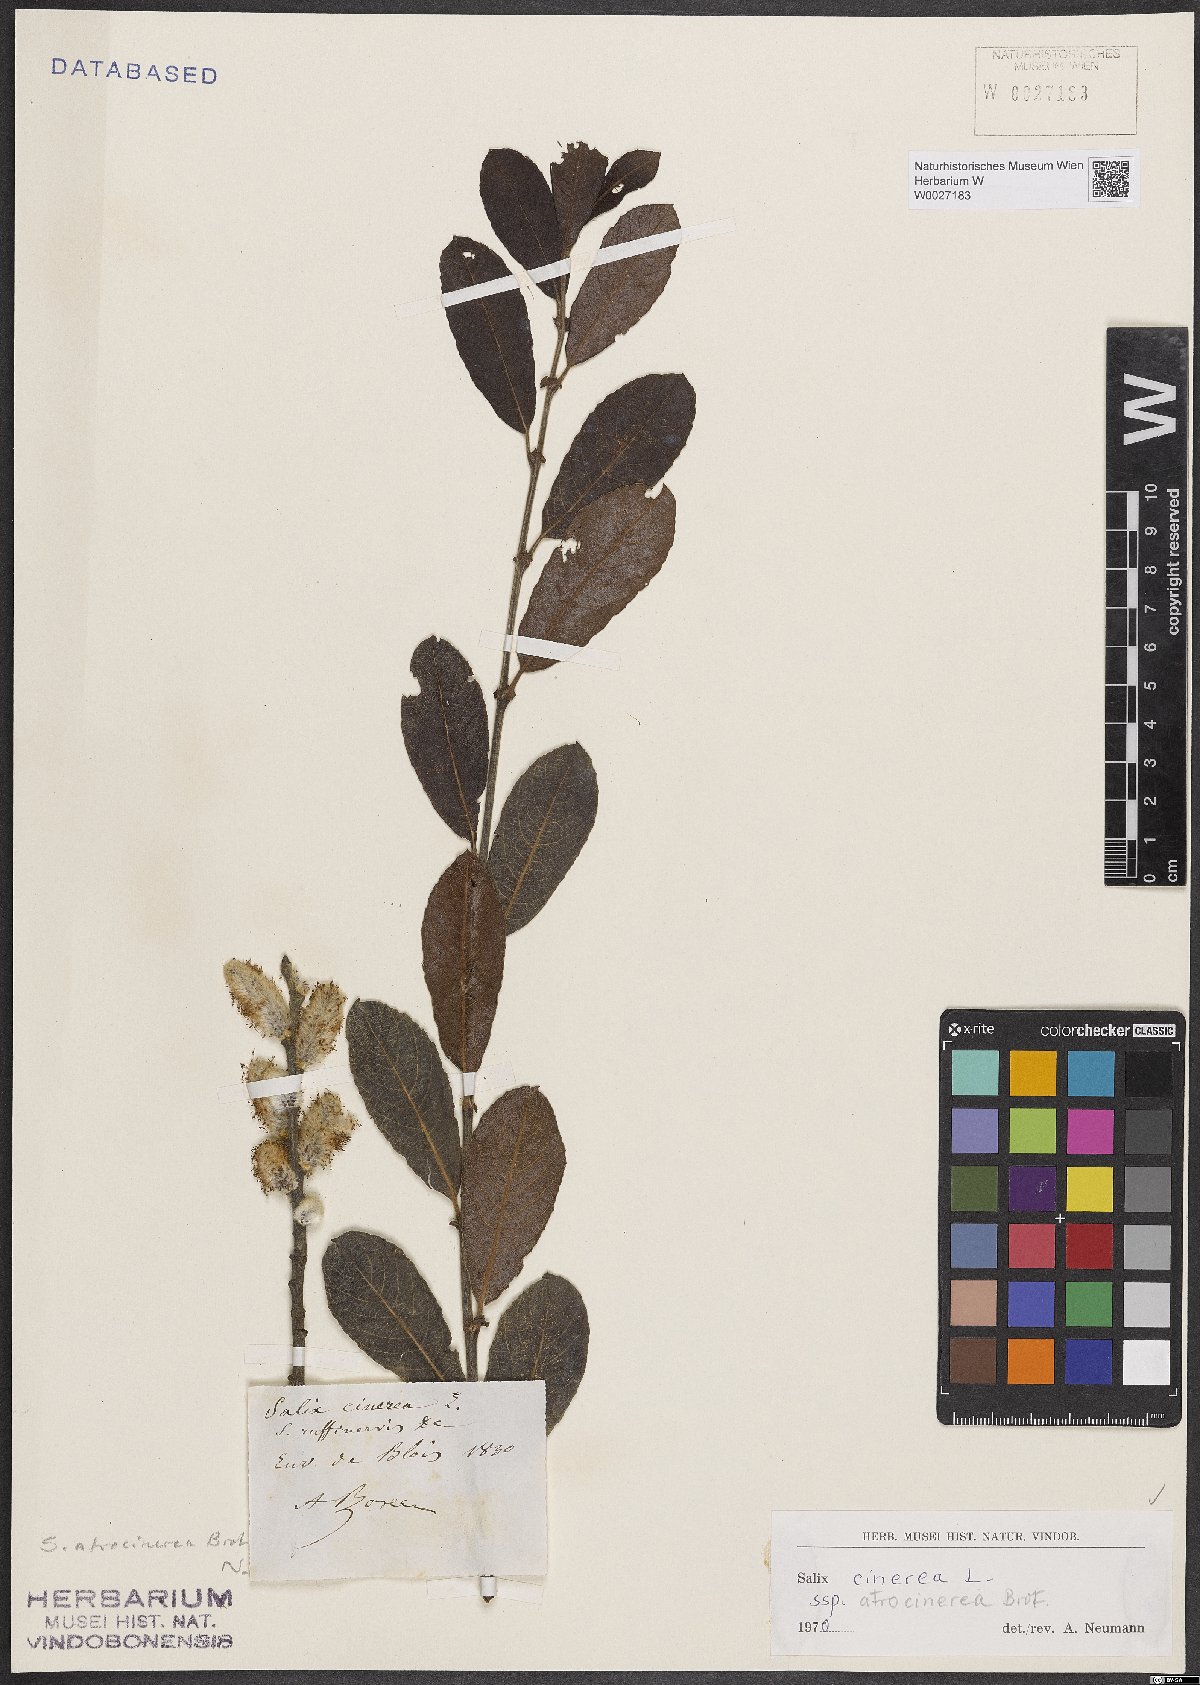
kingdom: Plantae
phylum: Tracheophyta
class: Magnoliopsida
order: Malpighiales
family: Salicaceae
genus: Salix
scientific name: Salix atrocinerea
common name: Rusty willow
